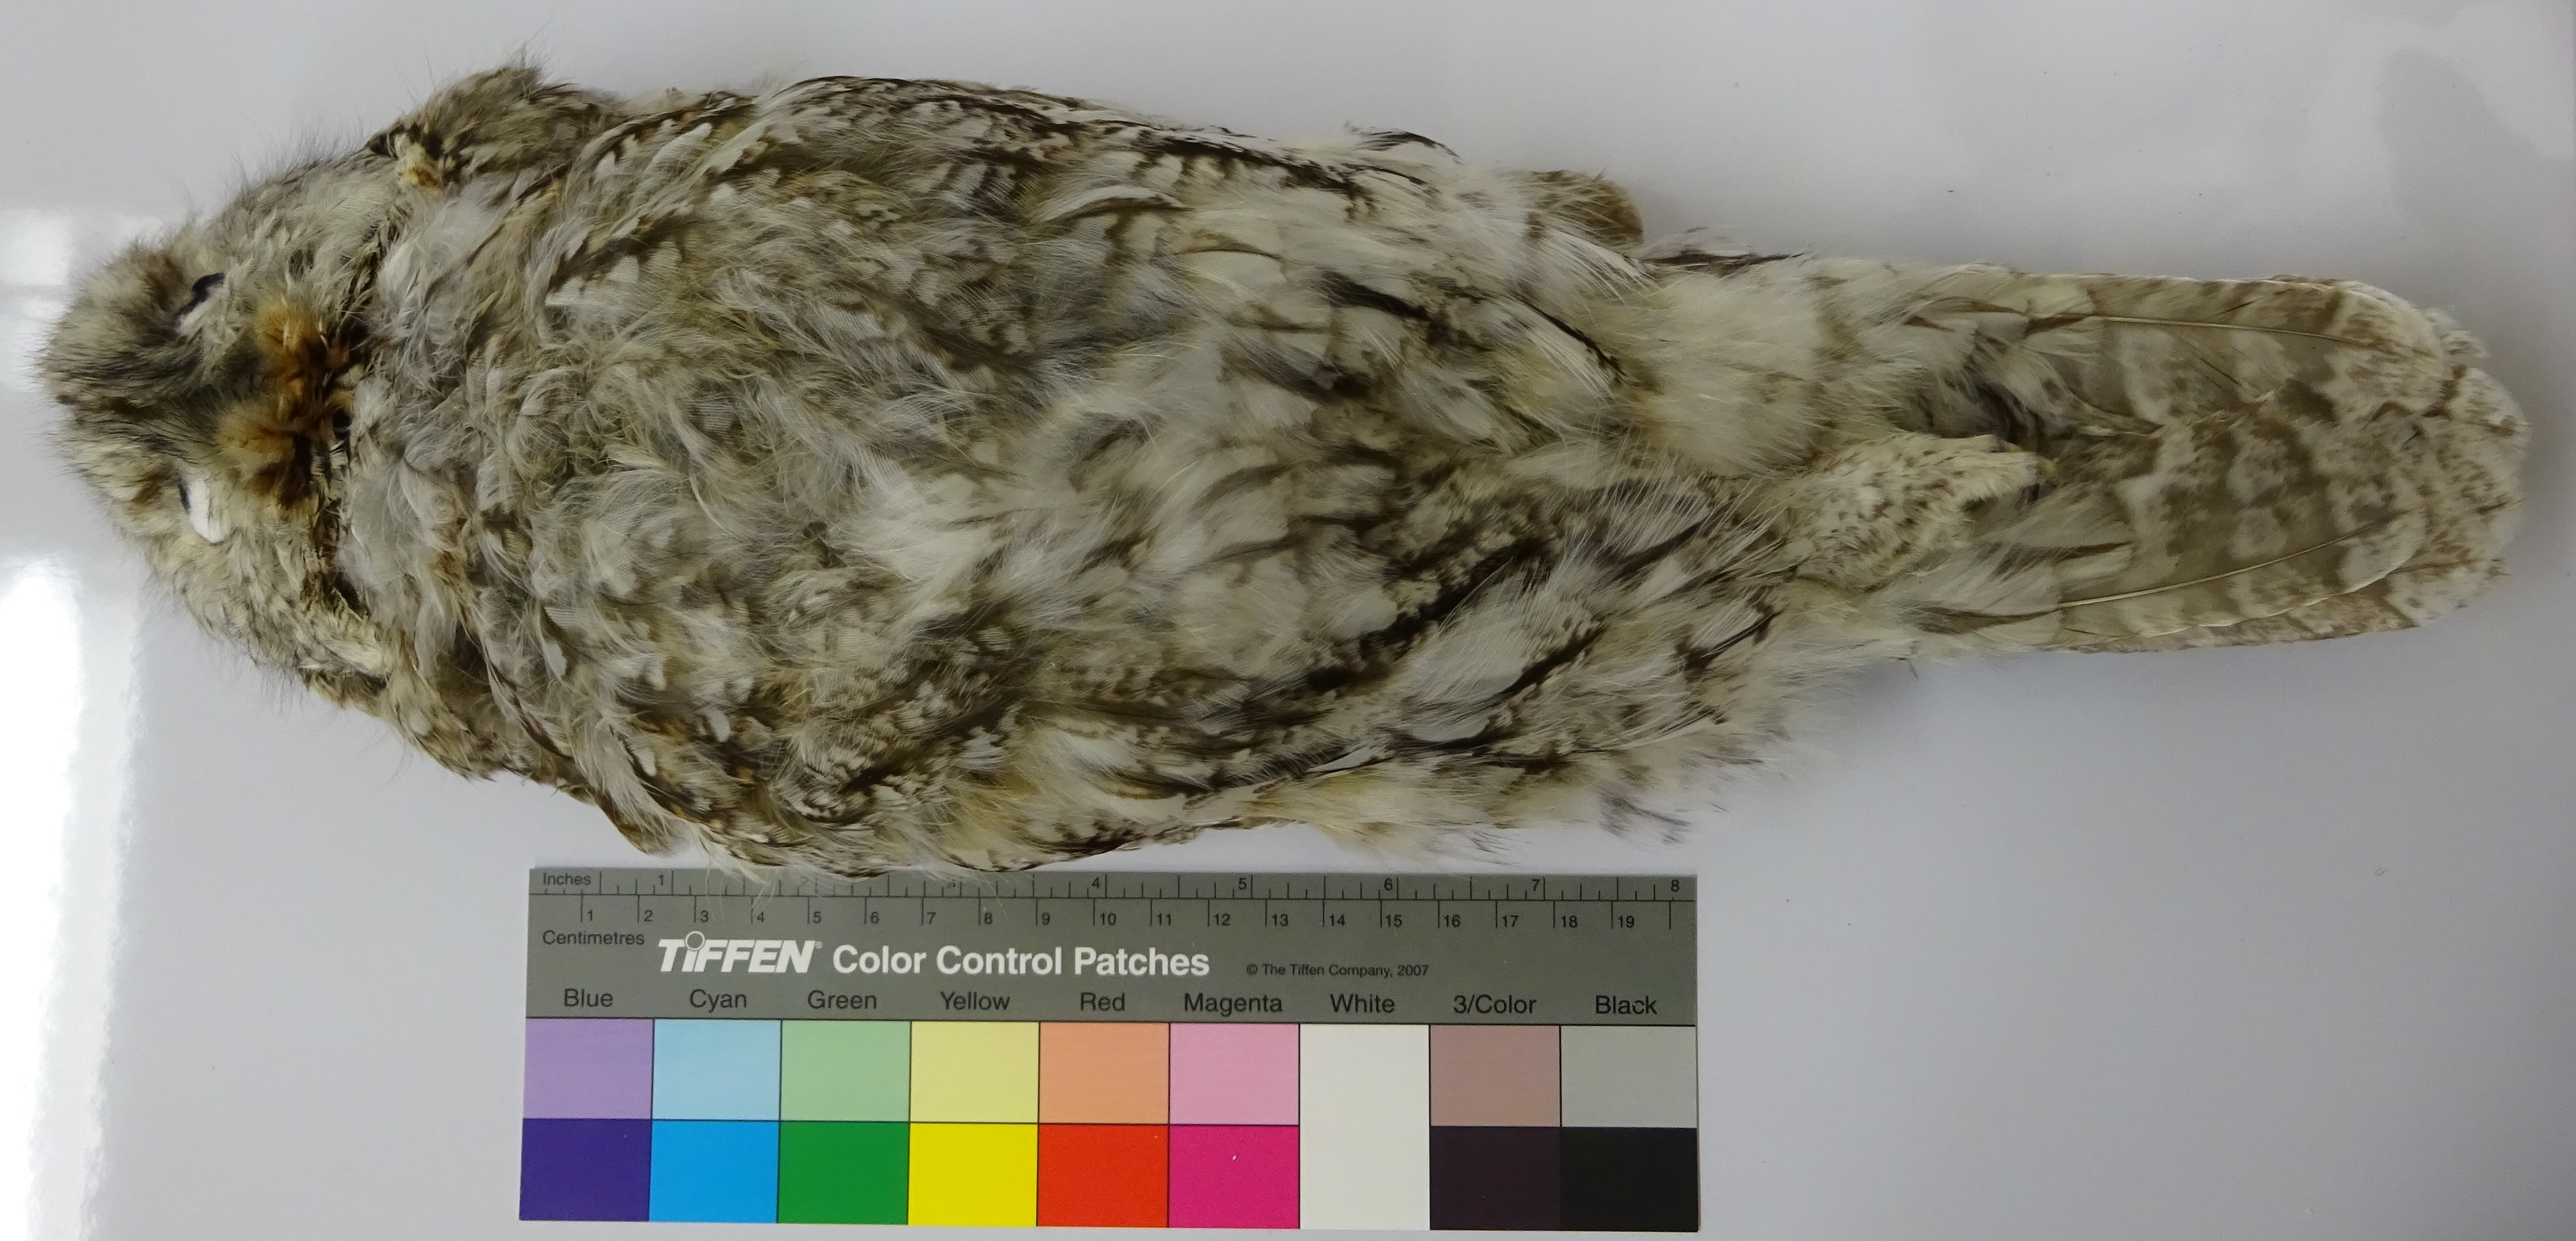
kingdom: Animalia
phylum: Chordata
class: Aves
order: Strigiformes
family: Strigidae
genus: Strix
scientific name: Strix aluco
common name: Tawny owl
